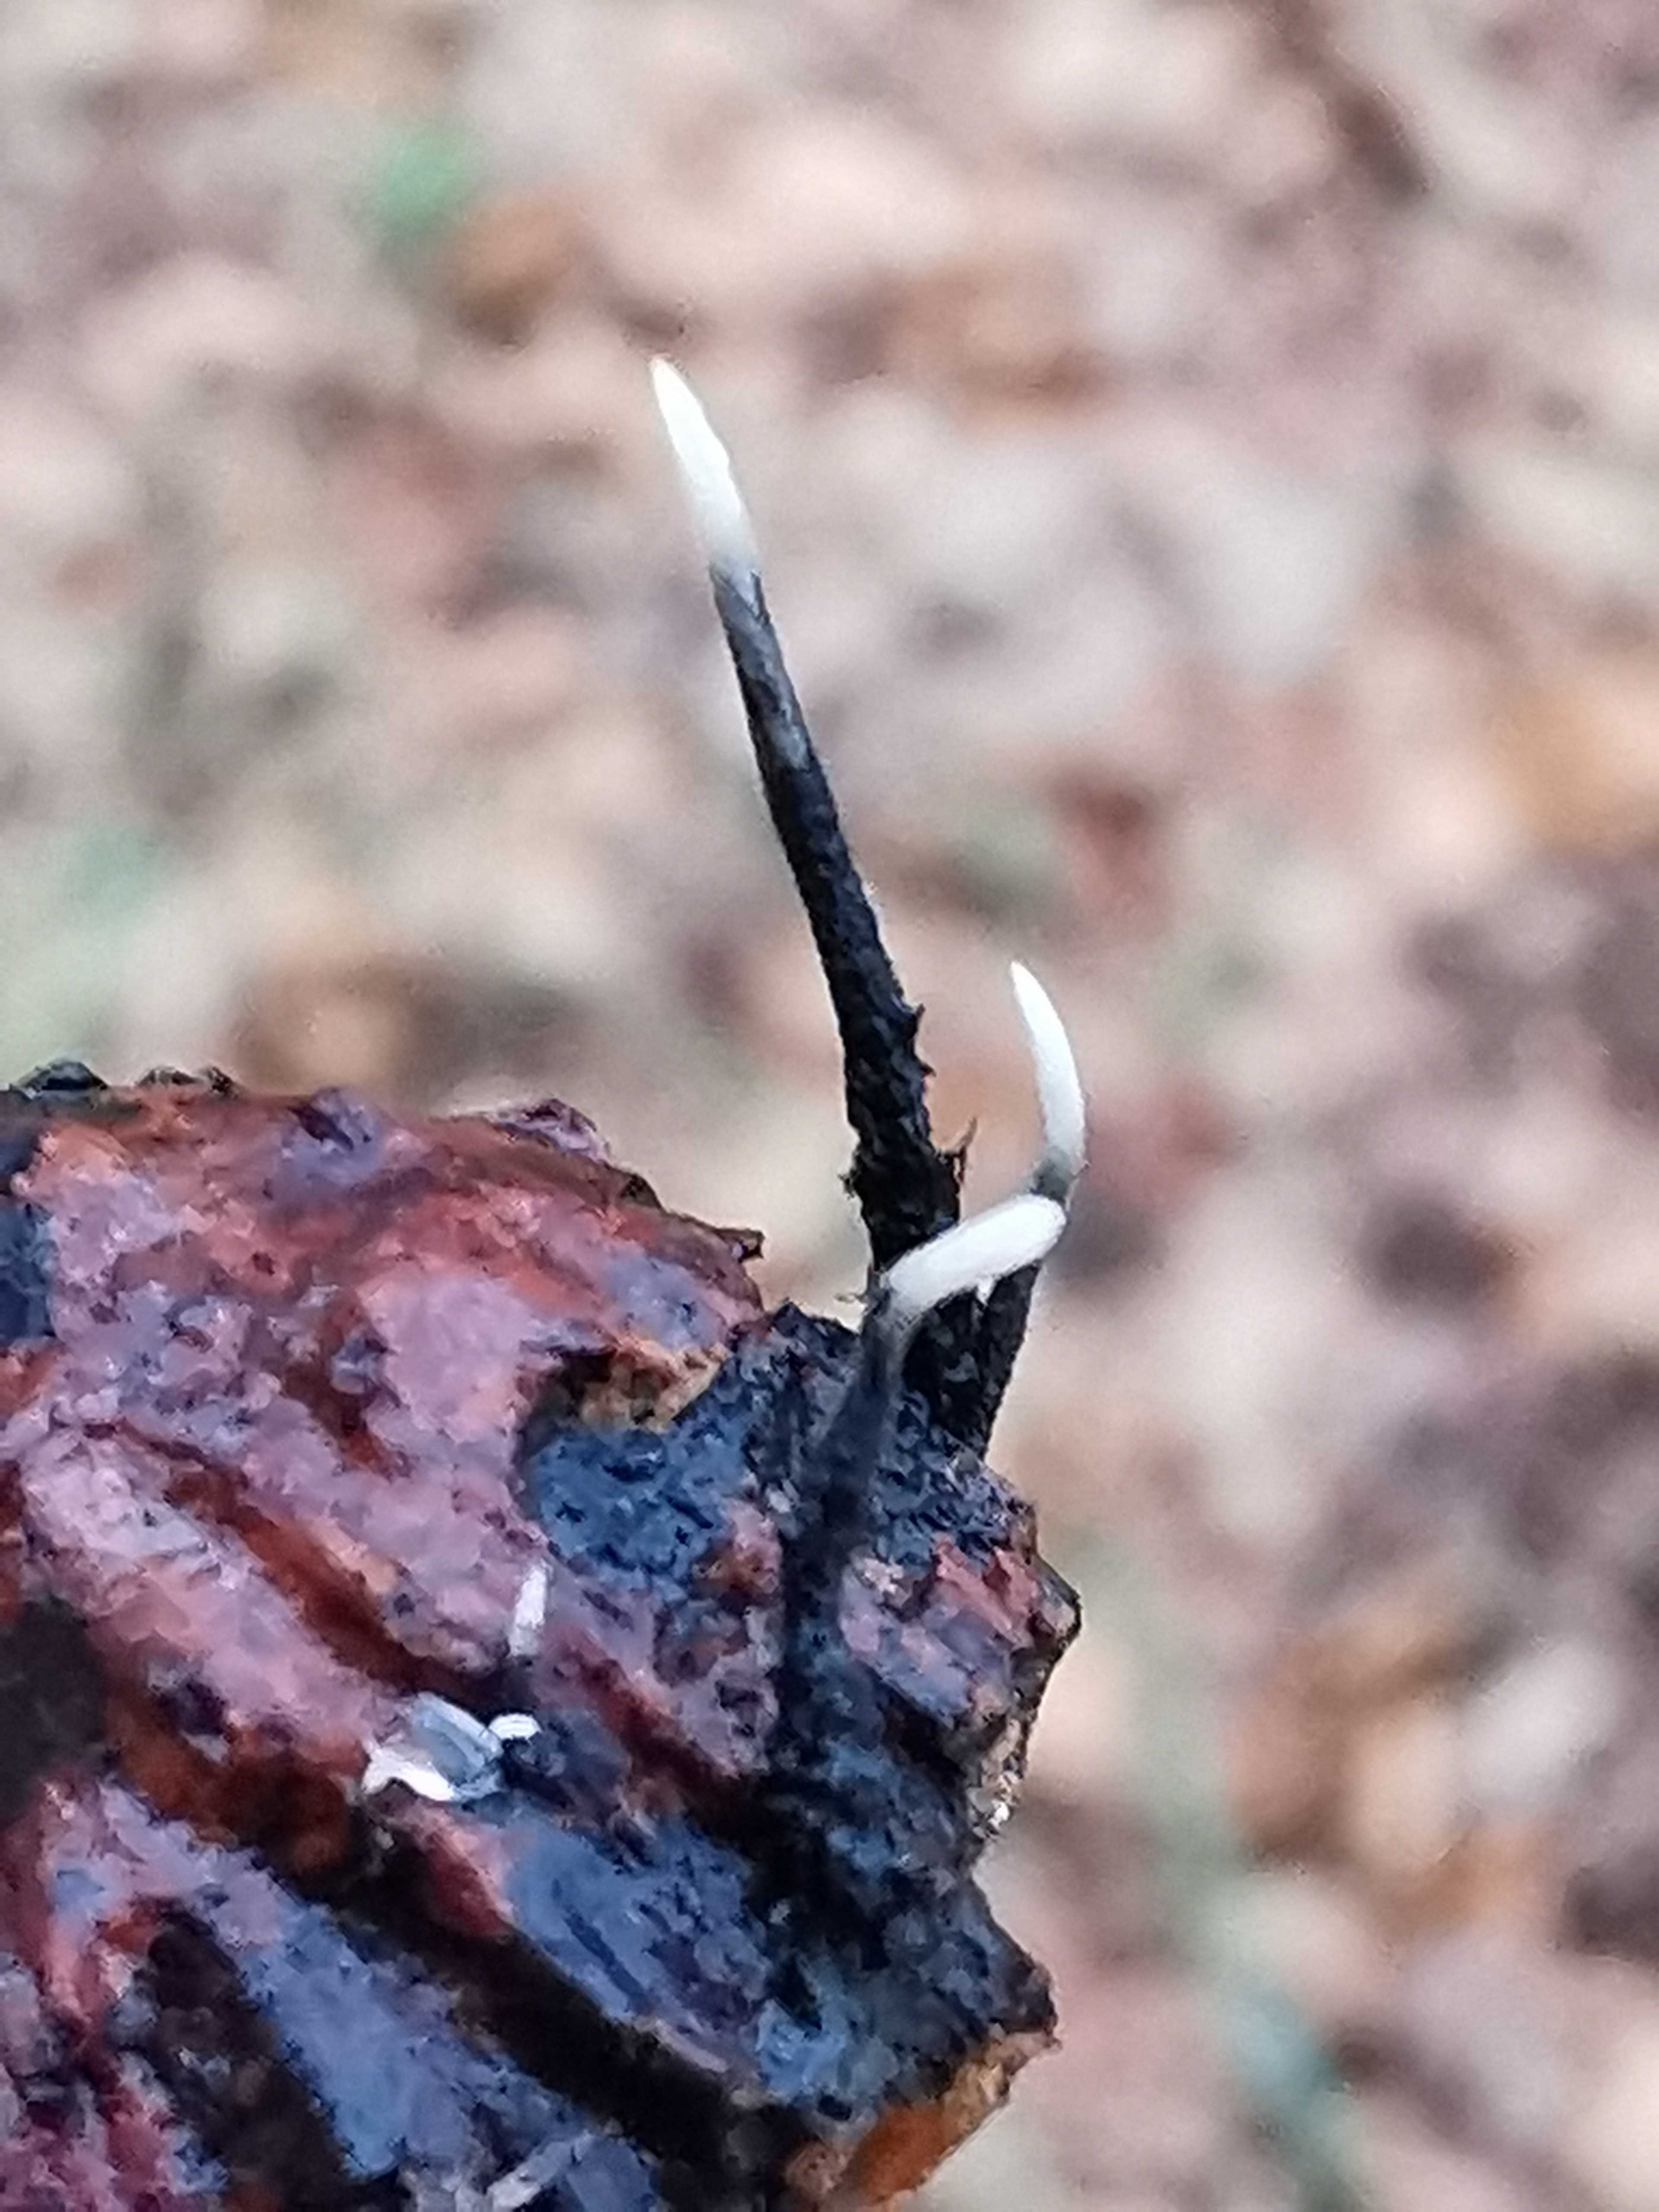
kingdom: Fungi
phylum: Ascomycota
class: Sordariomycetes
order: Xylariales
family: Xylariaceae
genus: Xylaria
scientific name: Xylaria carpophila
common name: bogskål-stødsvamp
